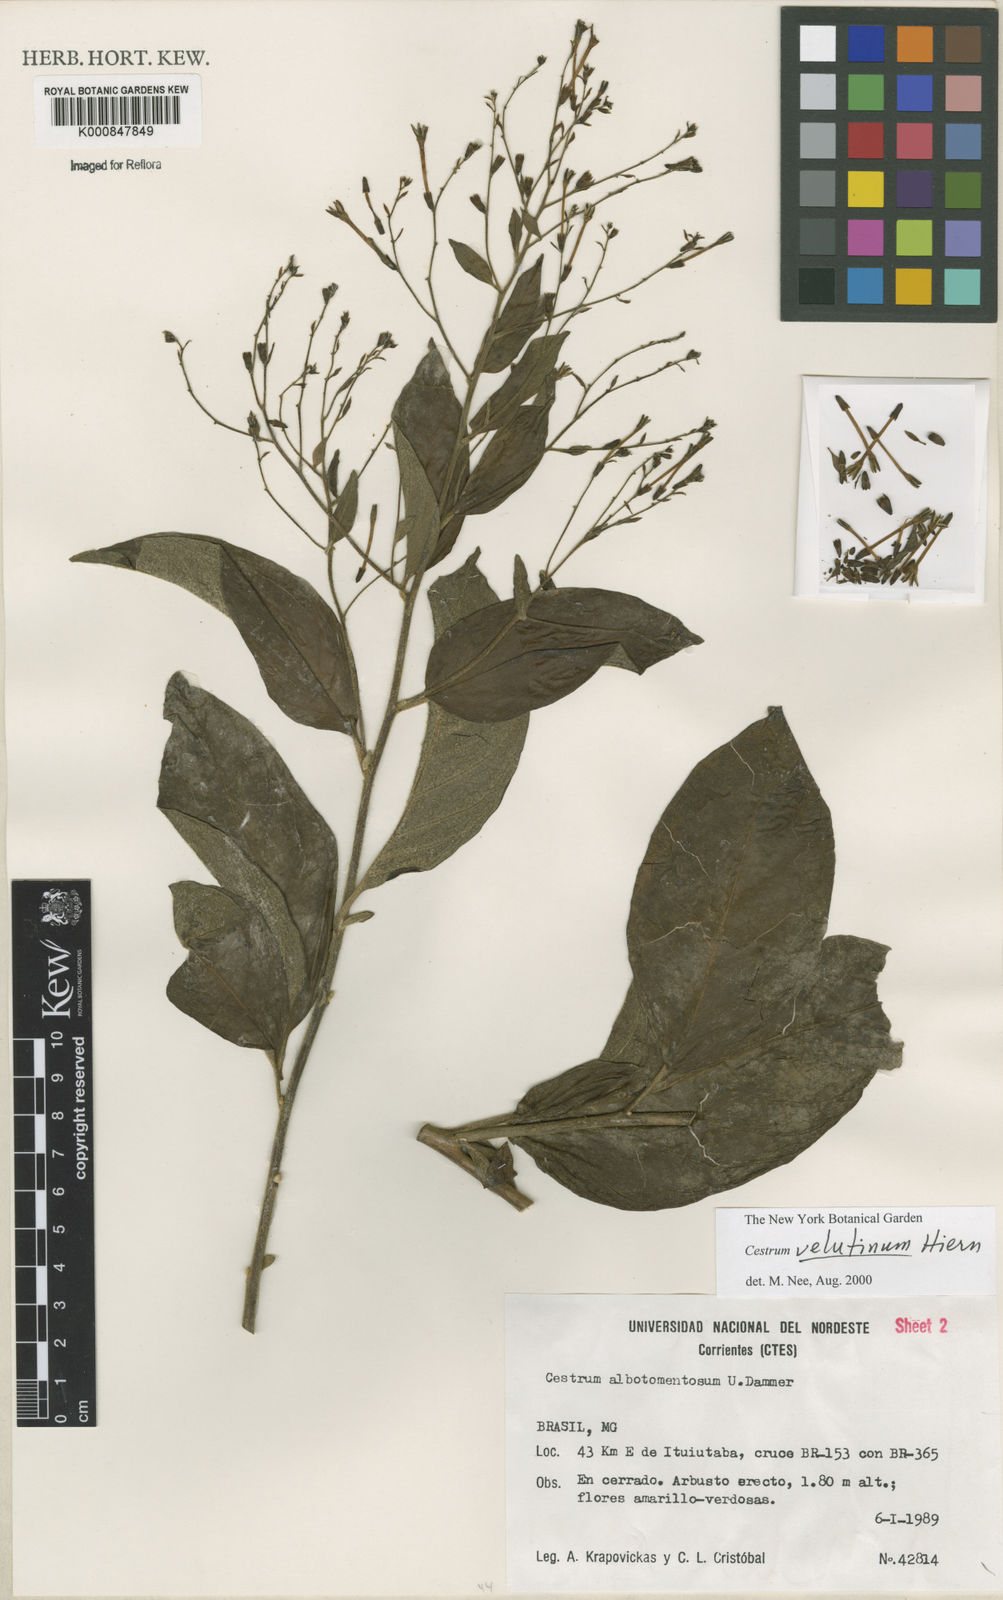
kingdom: Plantae
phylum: Tracheophyta
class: Magnoliopsida
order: Solanales
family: Solanaceae
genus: Cestrum
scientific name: Cestrum velutinum
